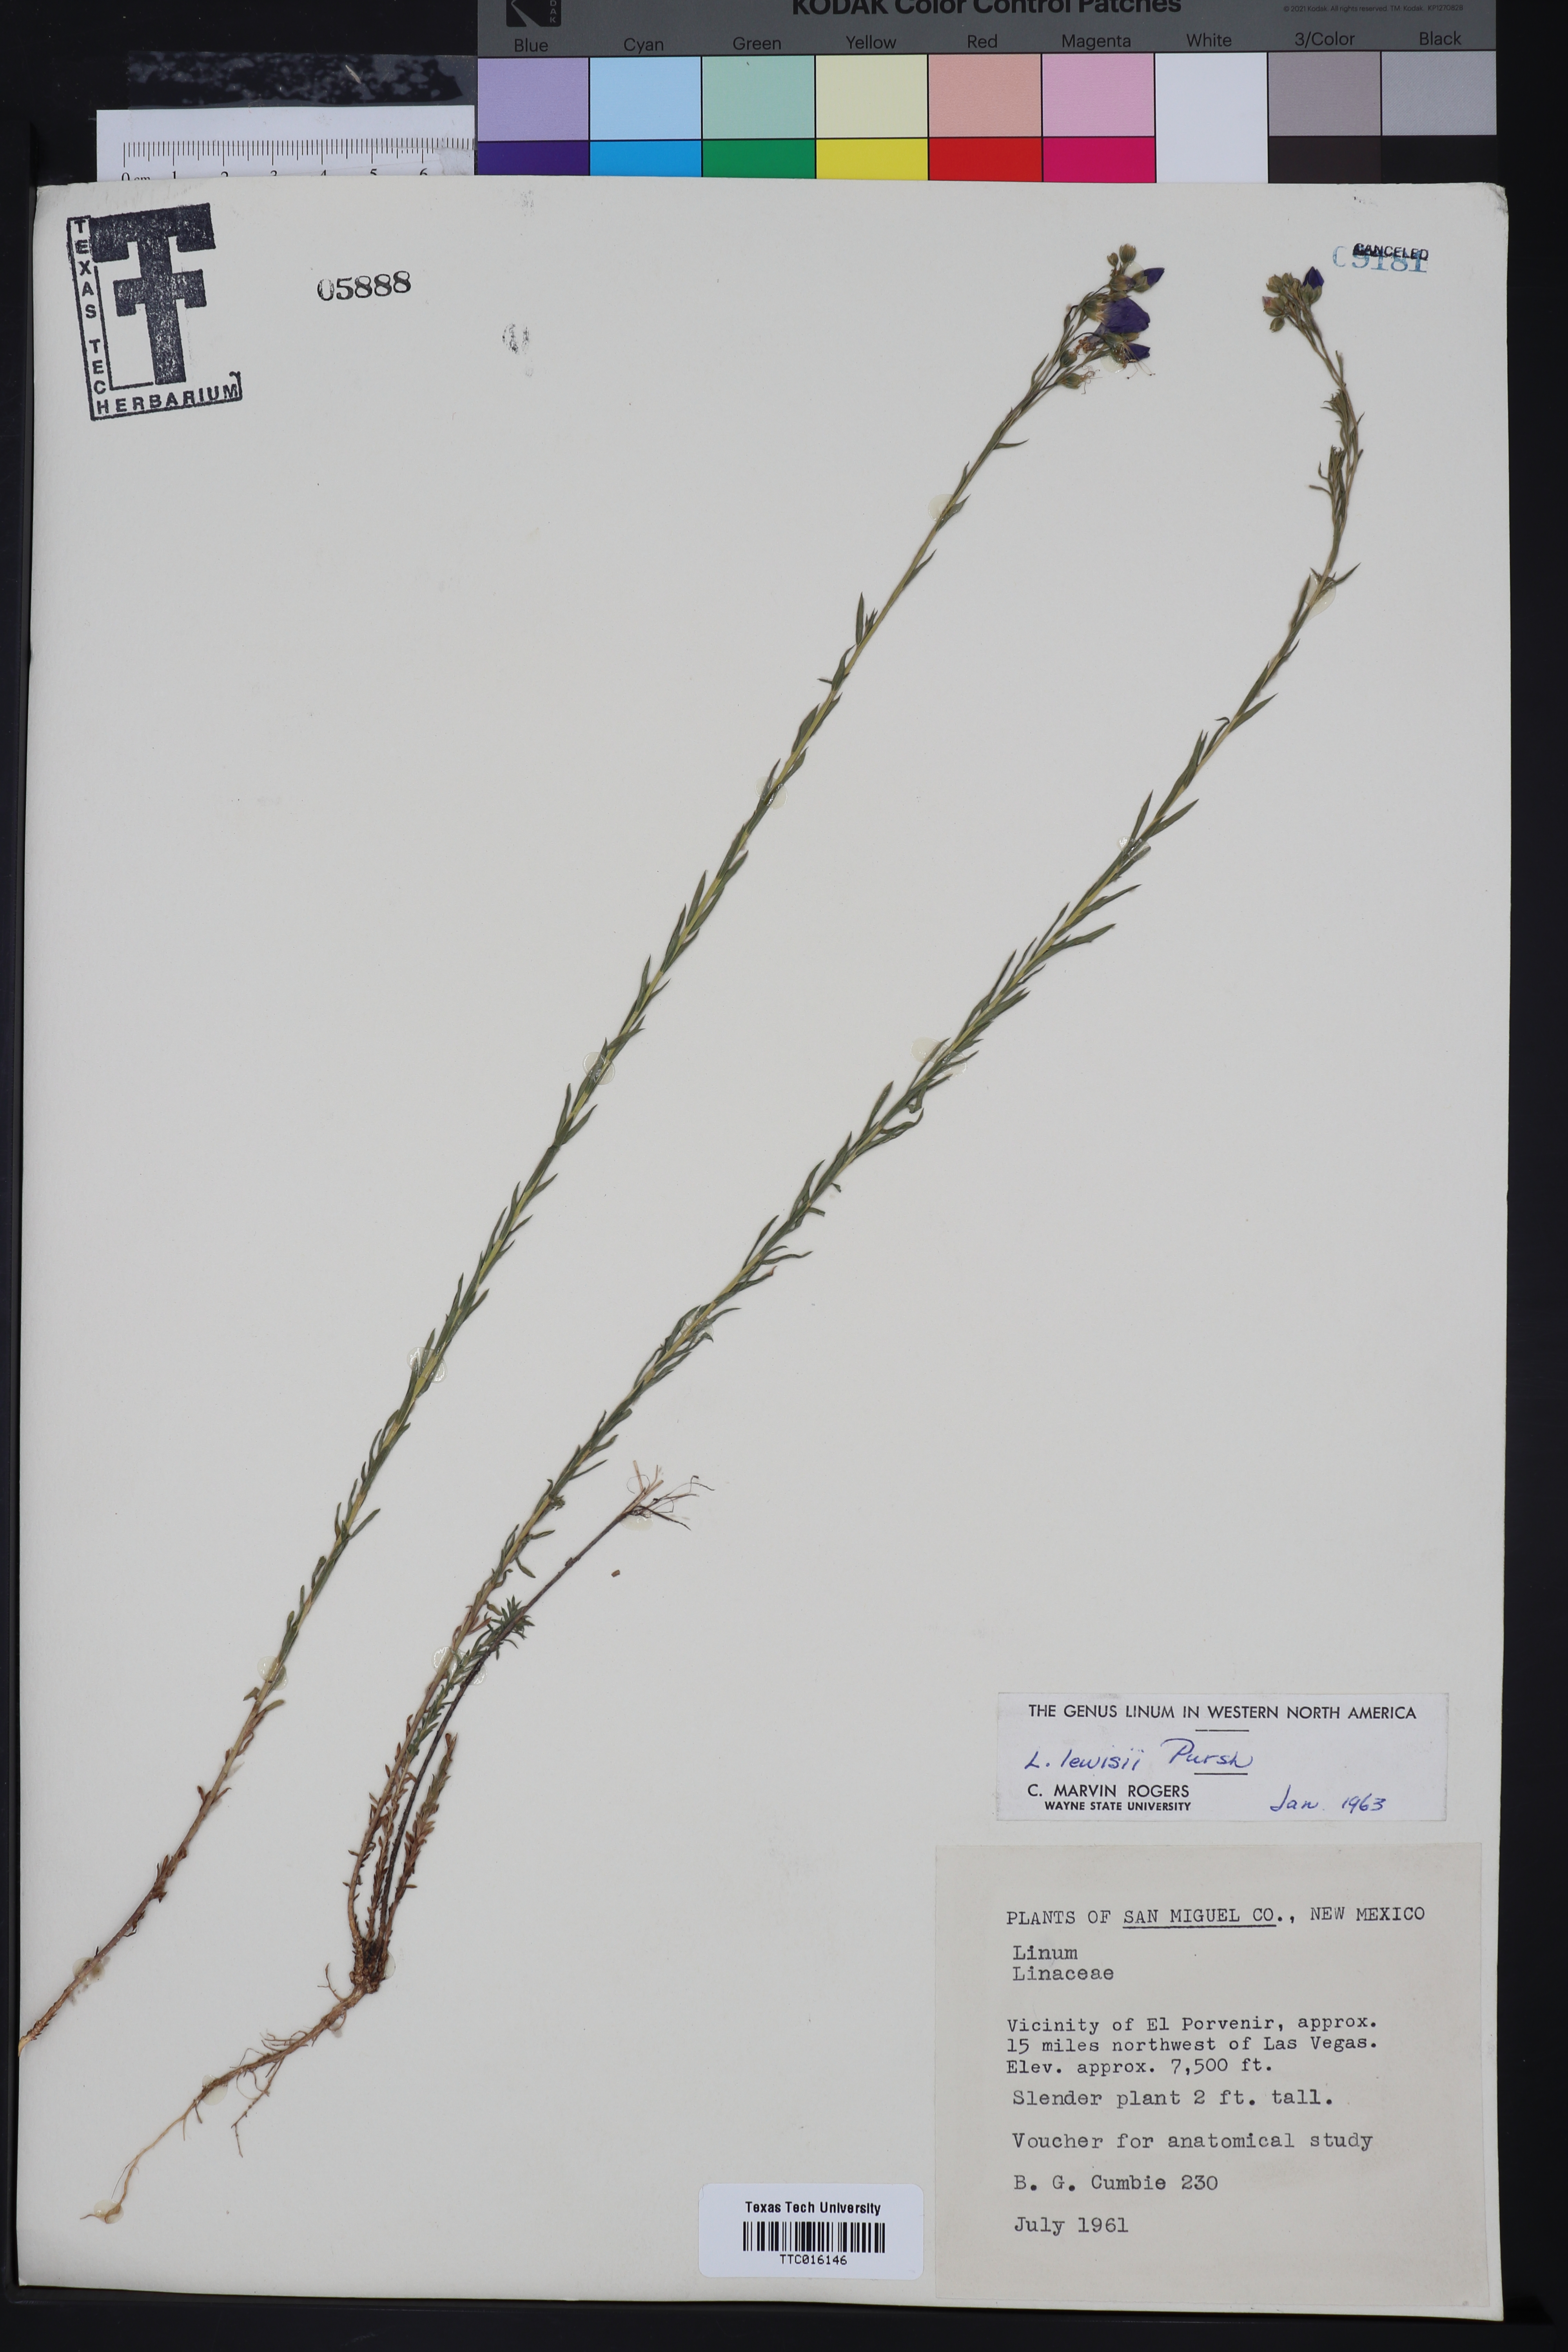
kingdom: Plantae
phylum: Tracheophyta
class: Magnoliopsida
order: Malpighiales
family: Linaceae
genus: Linum
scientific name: Linum lewisii
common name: Prairie flax
